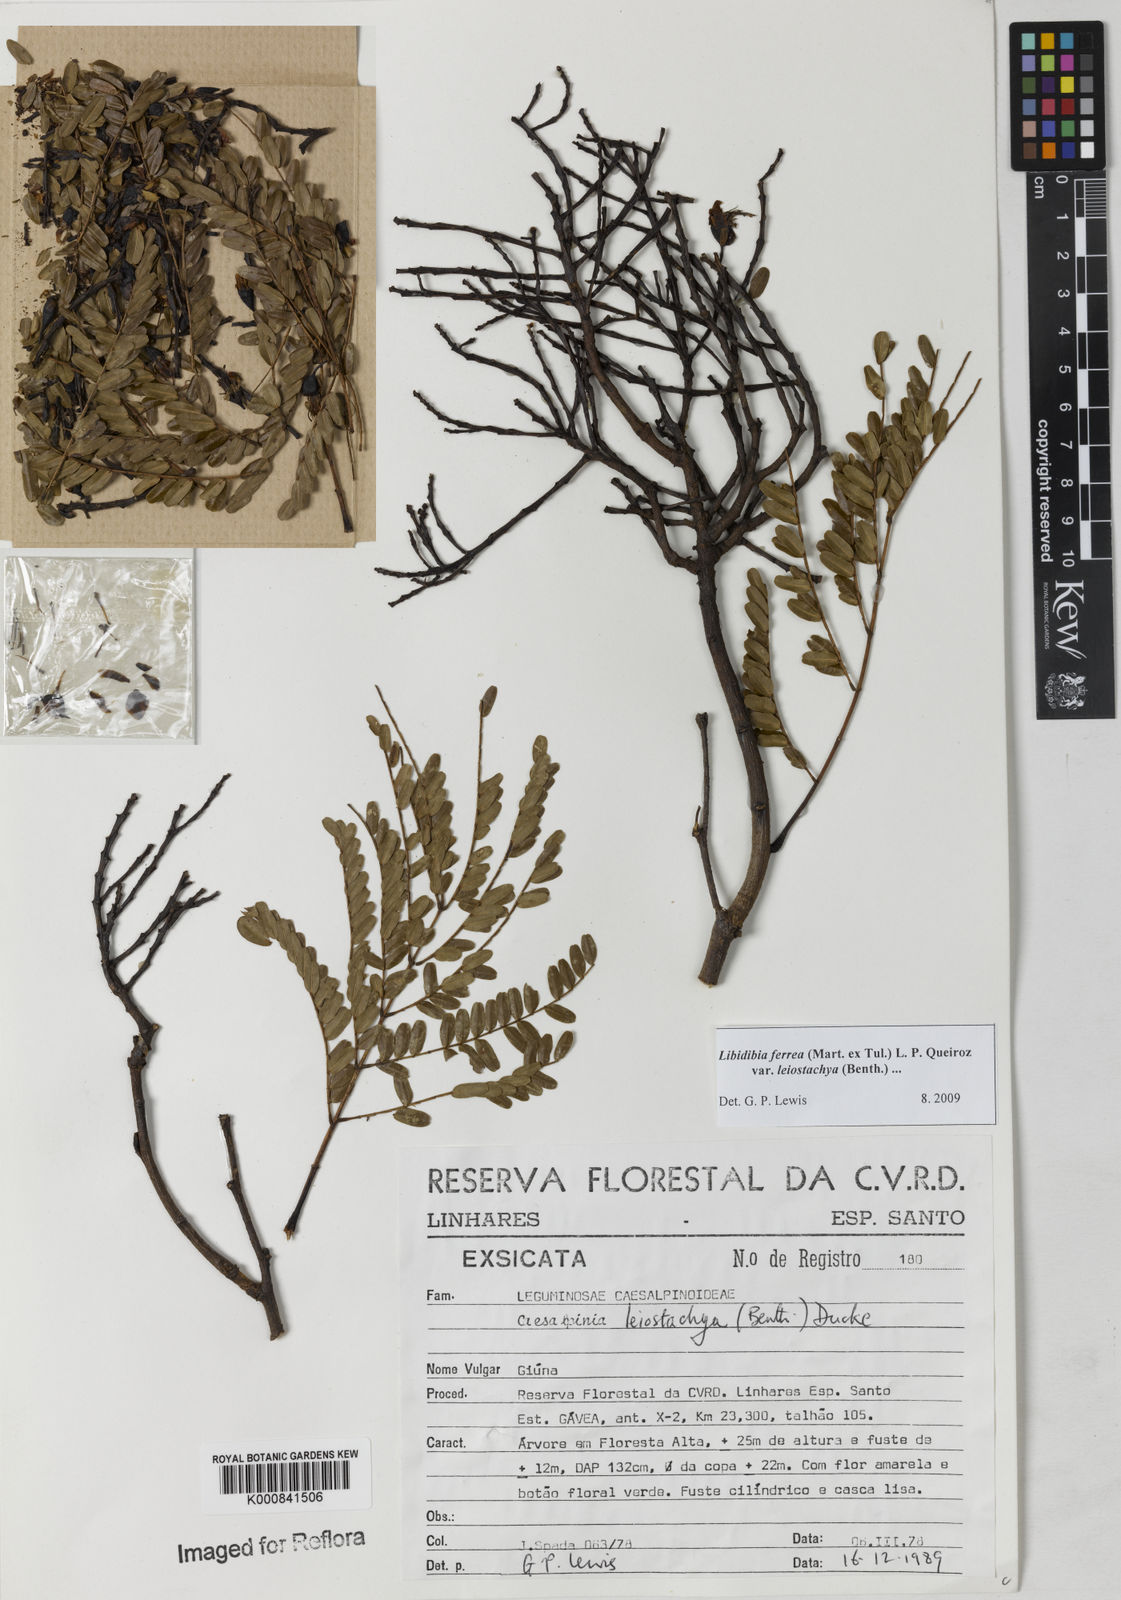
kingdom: Plantae
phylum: Tracheophyta
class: Magnoliopsida
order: Fabales
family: Fabaceae
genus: Libidibia
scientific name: Libidibia ferrea
